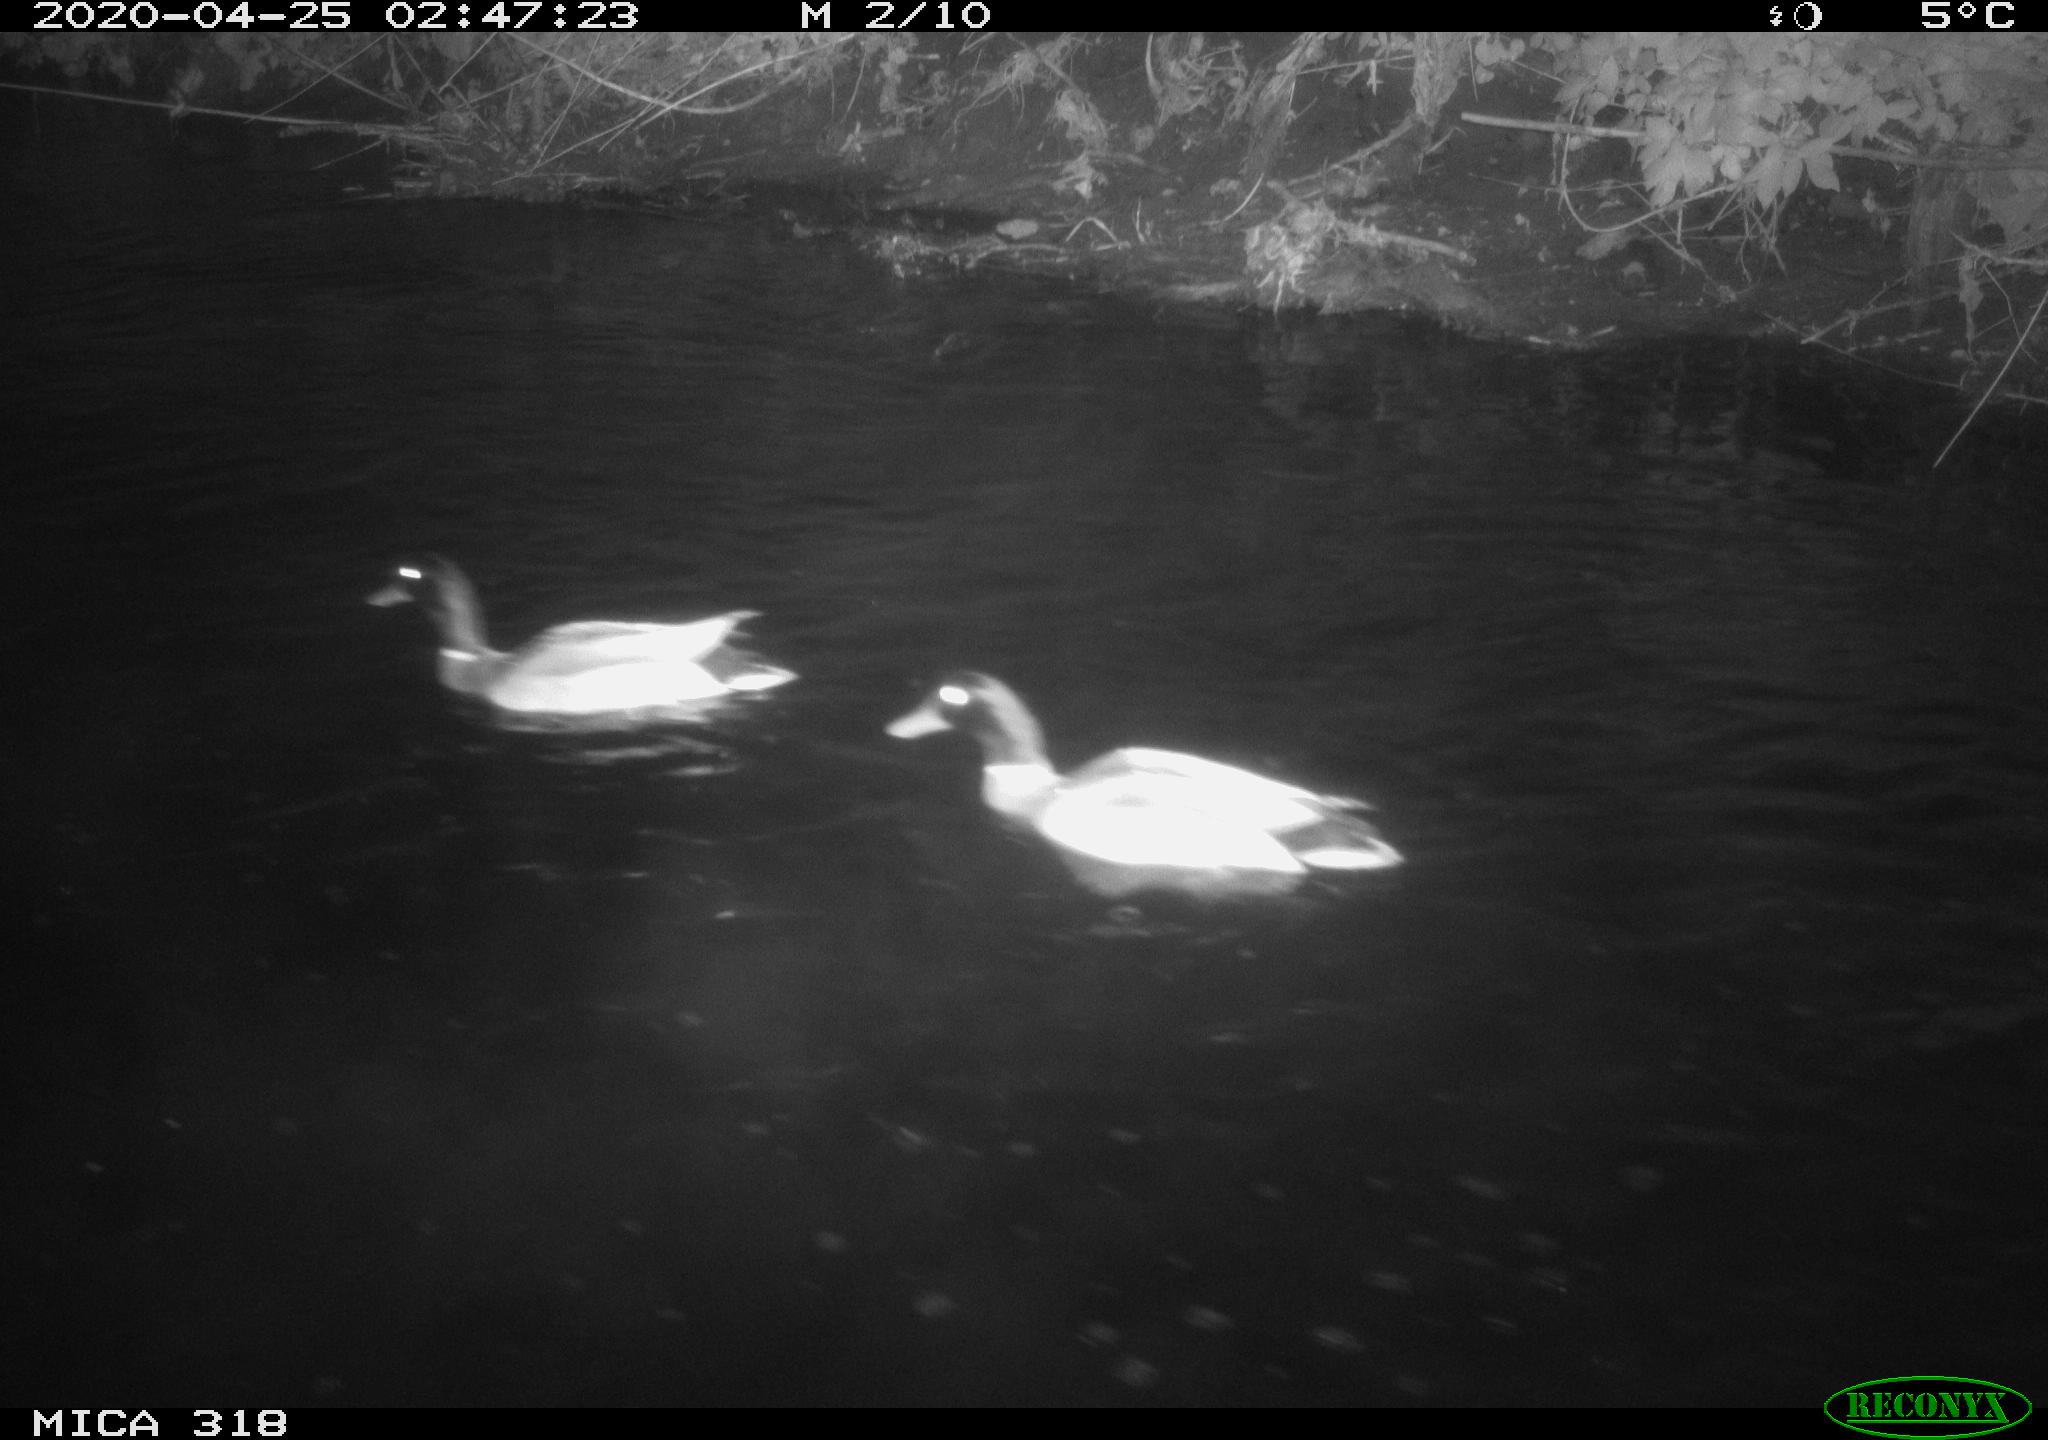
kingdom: Animalia
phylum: Chordata
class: Aves
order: Anseriformes
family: Anatidae
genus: Anas
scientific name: Anas platyrhynchos
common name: Mallard
